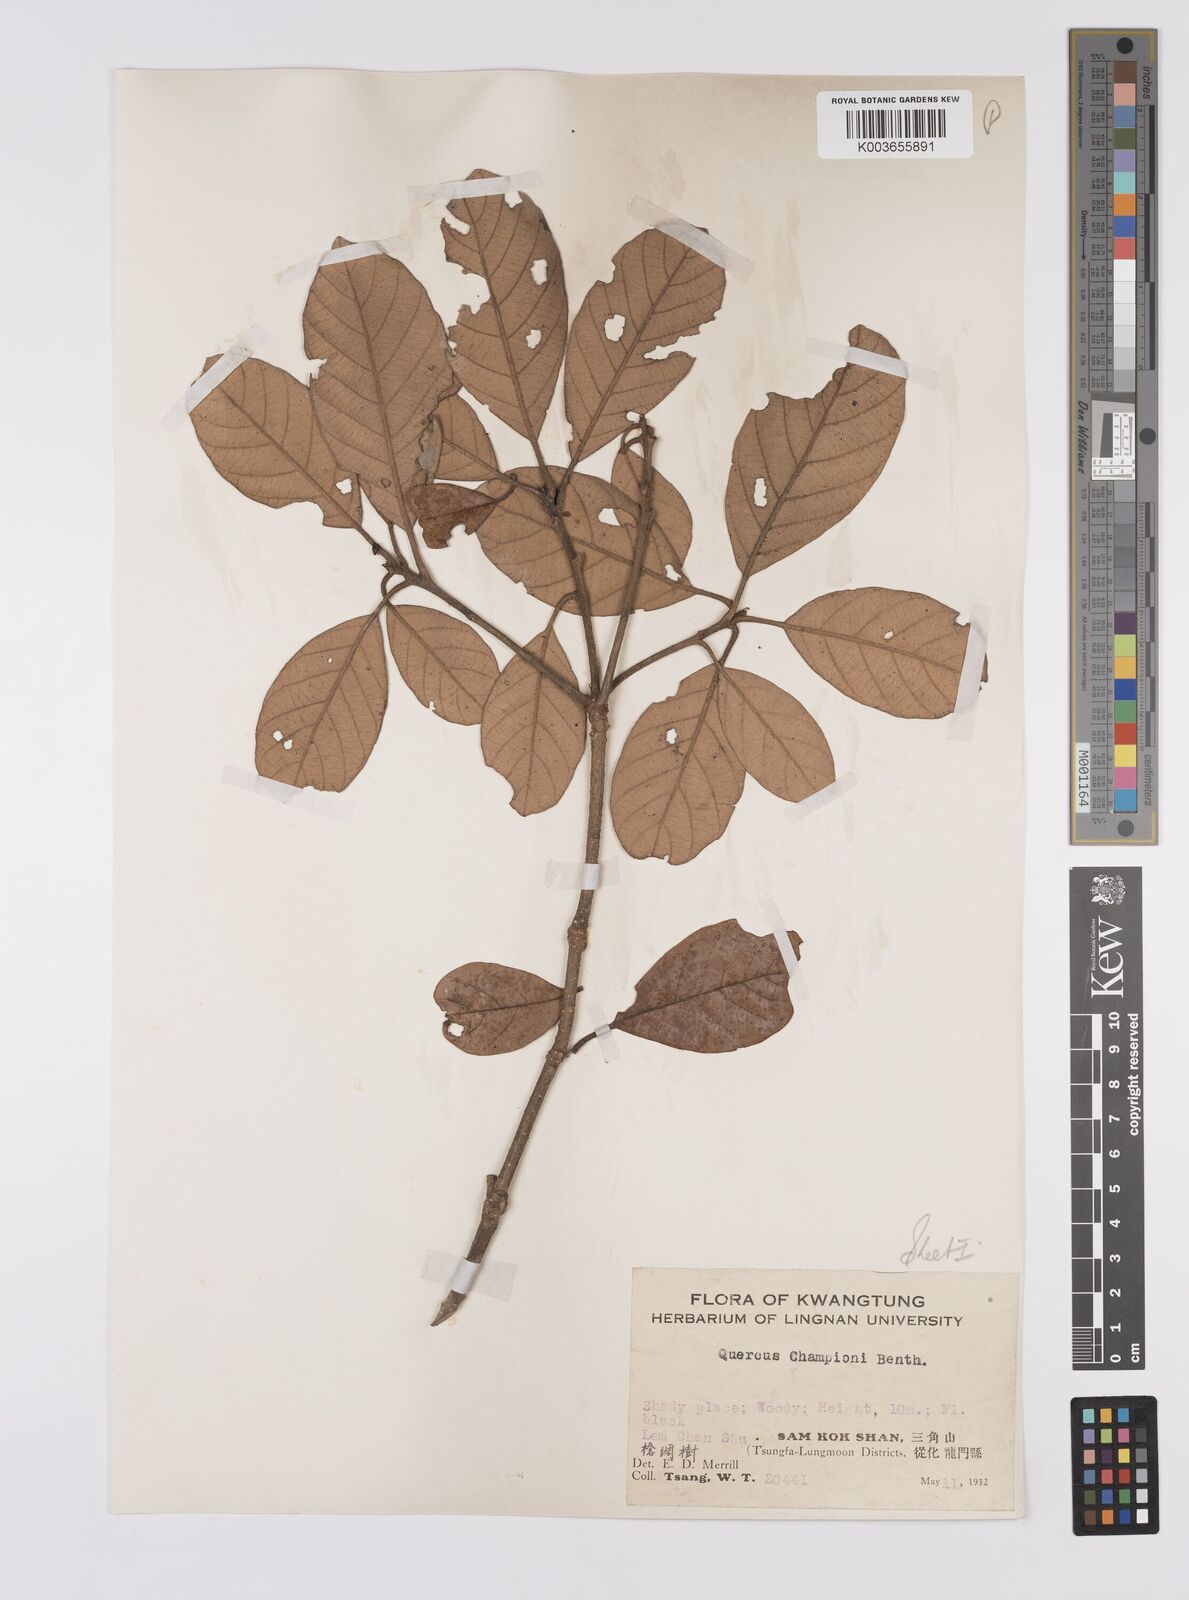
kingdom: Plantae
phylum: Tracheophyta
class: Magnoliopsida
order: Fagales
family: Fagaceae
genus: Quercus
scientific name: Quercus championii
